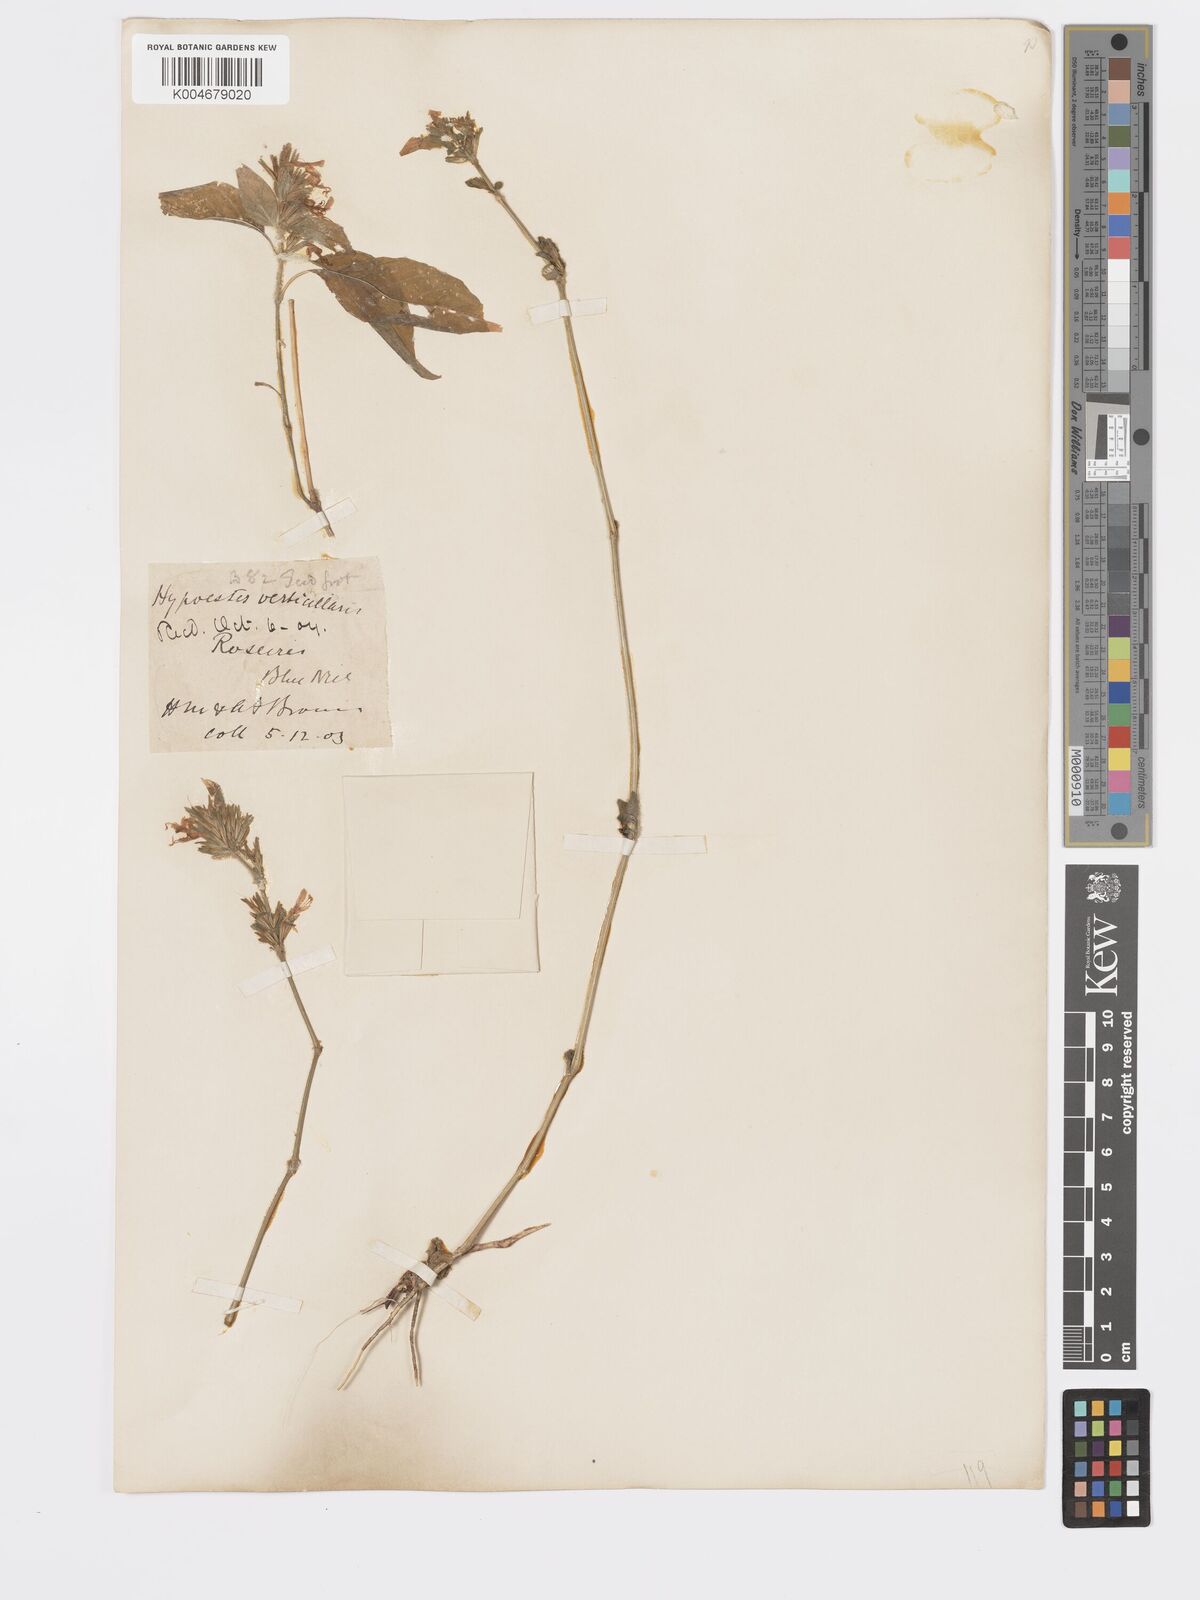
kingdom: Plantae
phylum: Tracheophyta
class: Magnoliopsida
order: Lamiales
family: Acanthaceae
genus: Hypoestes
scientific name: Hypoestes forskaolii
